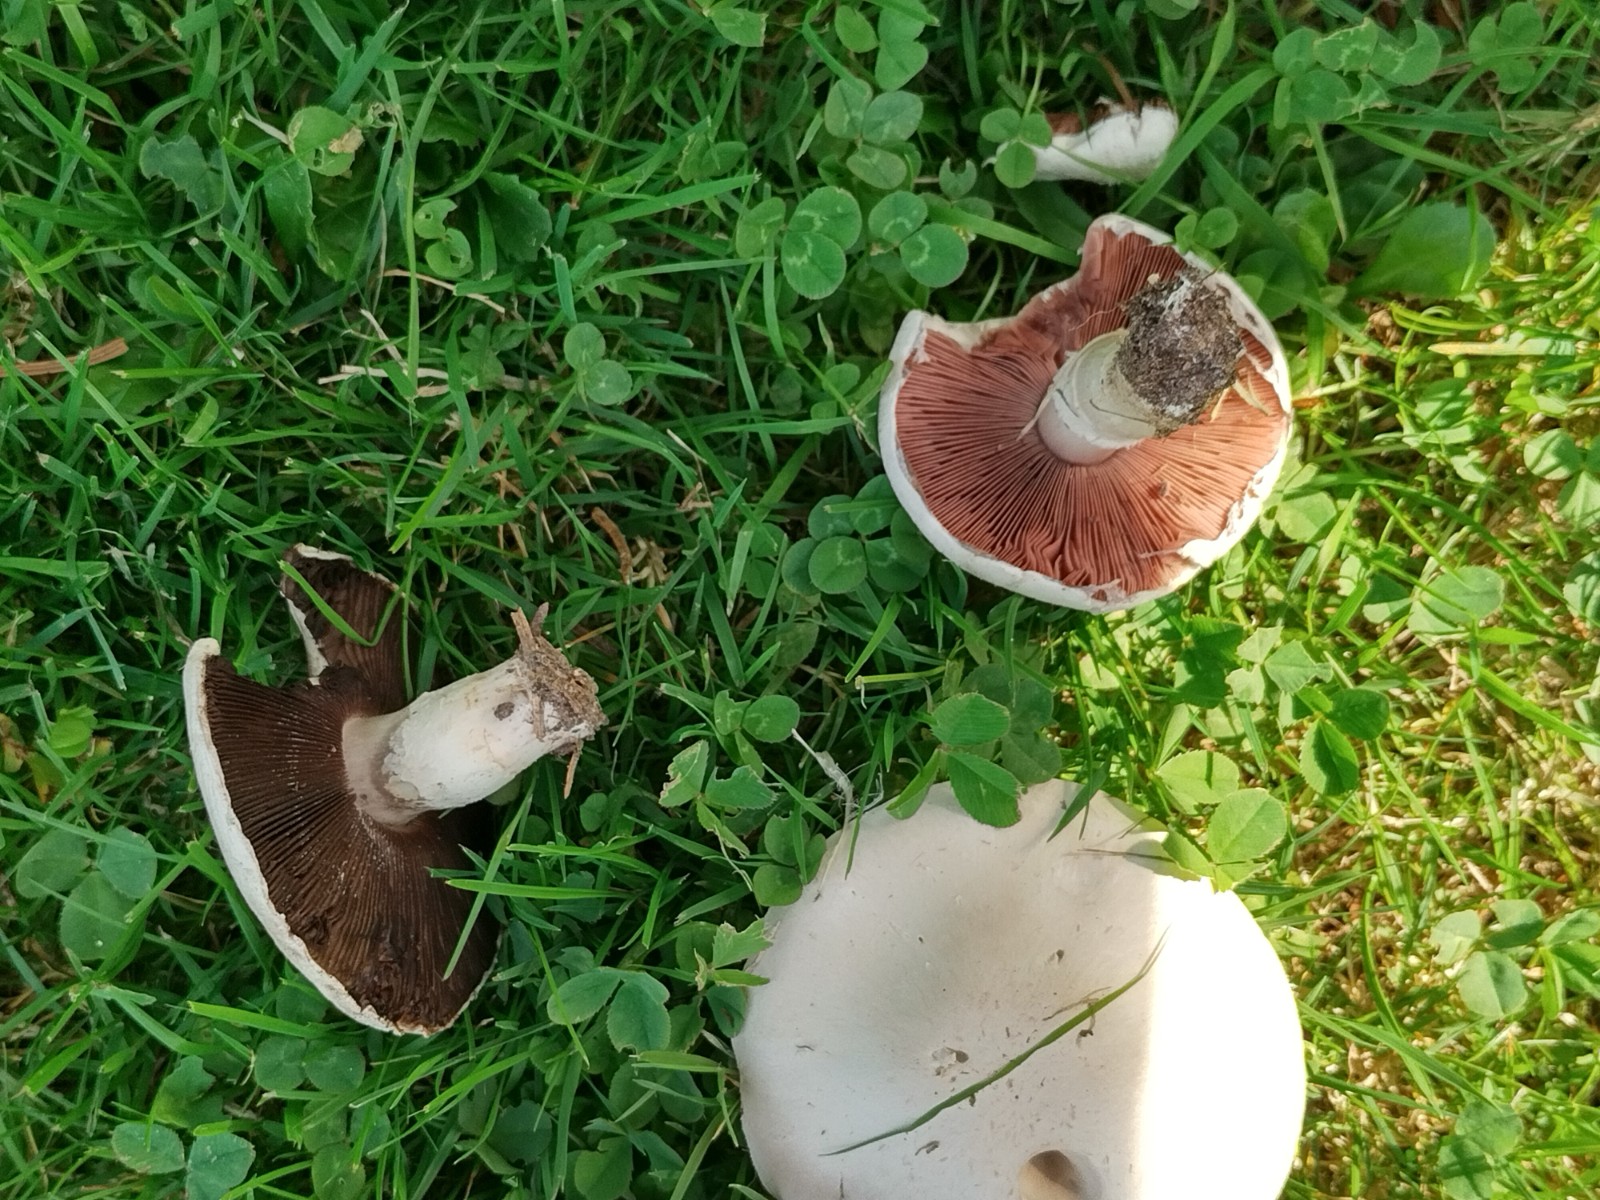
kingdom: Fungi
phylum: Basidiomycota
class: Agaricomycetes
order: Agaricales
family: Agaricaceae
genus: Agaricus
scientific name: Agaricus campestris
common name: mark-champignon
